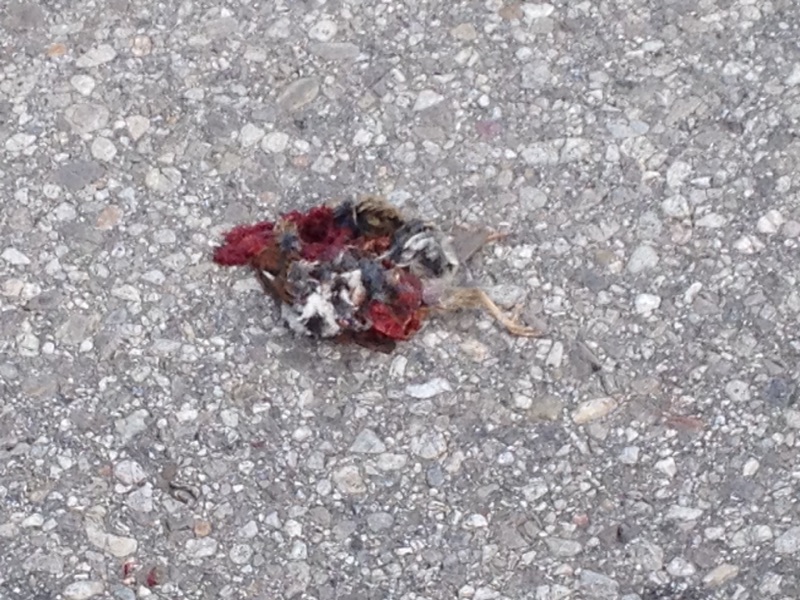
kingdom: Animalia
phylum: Chordata
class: Aves
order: Passeriformes
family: Passeridae
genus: Passer
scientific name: Passer
